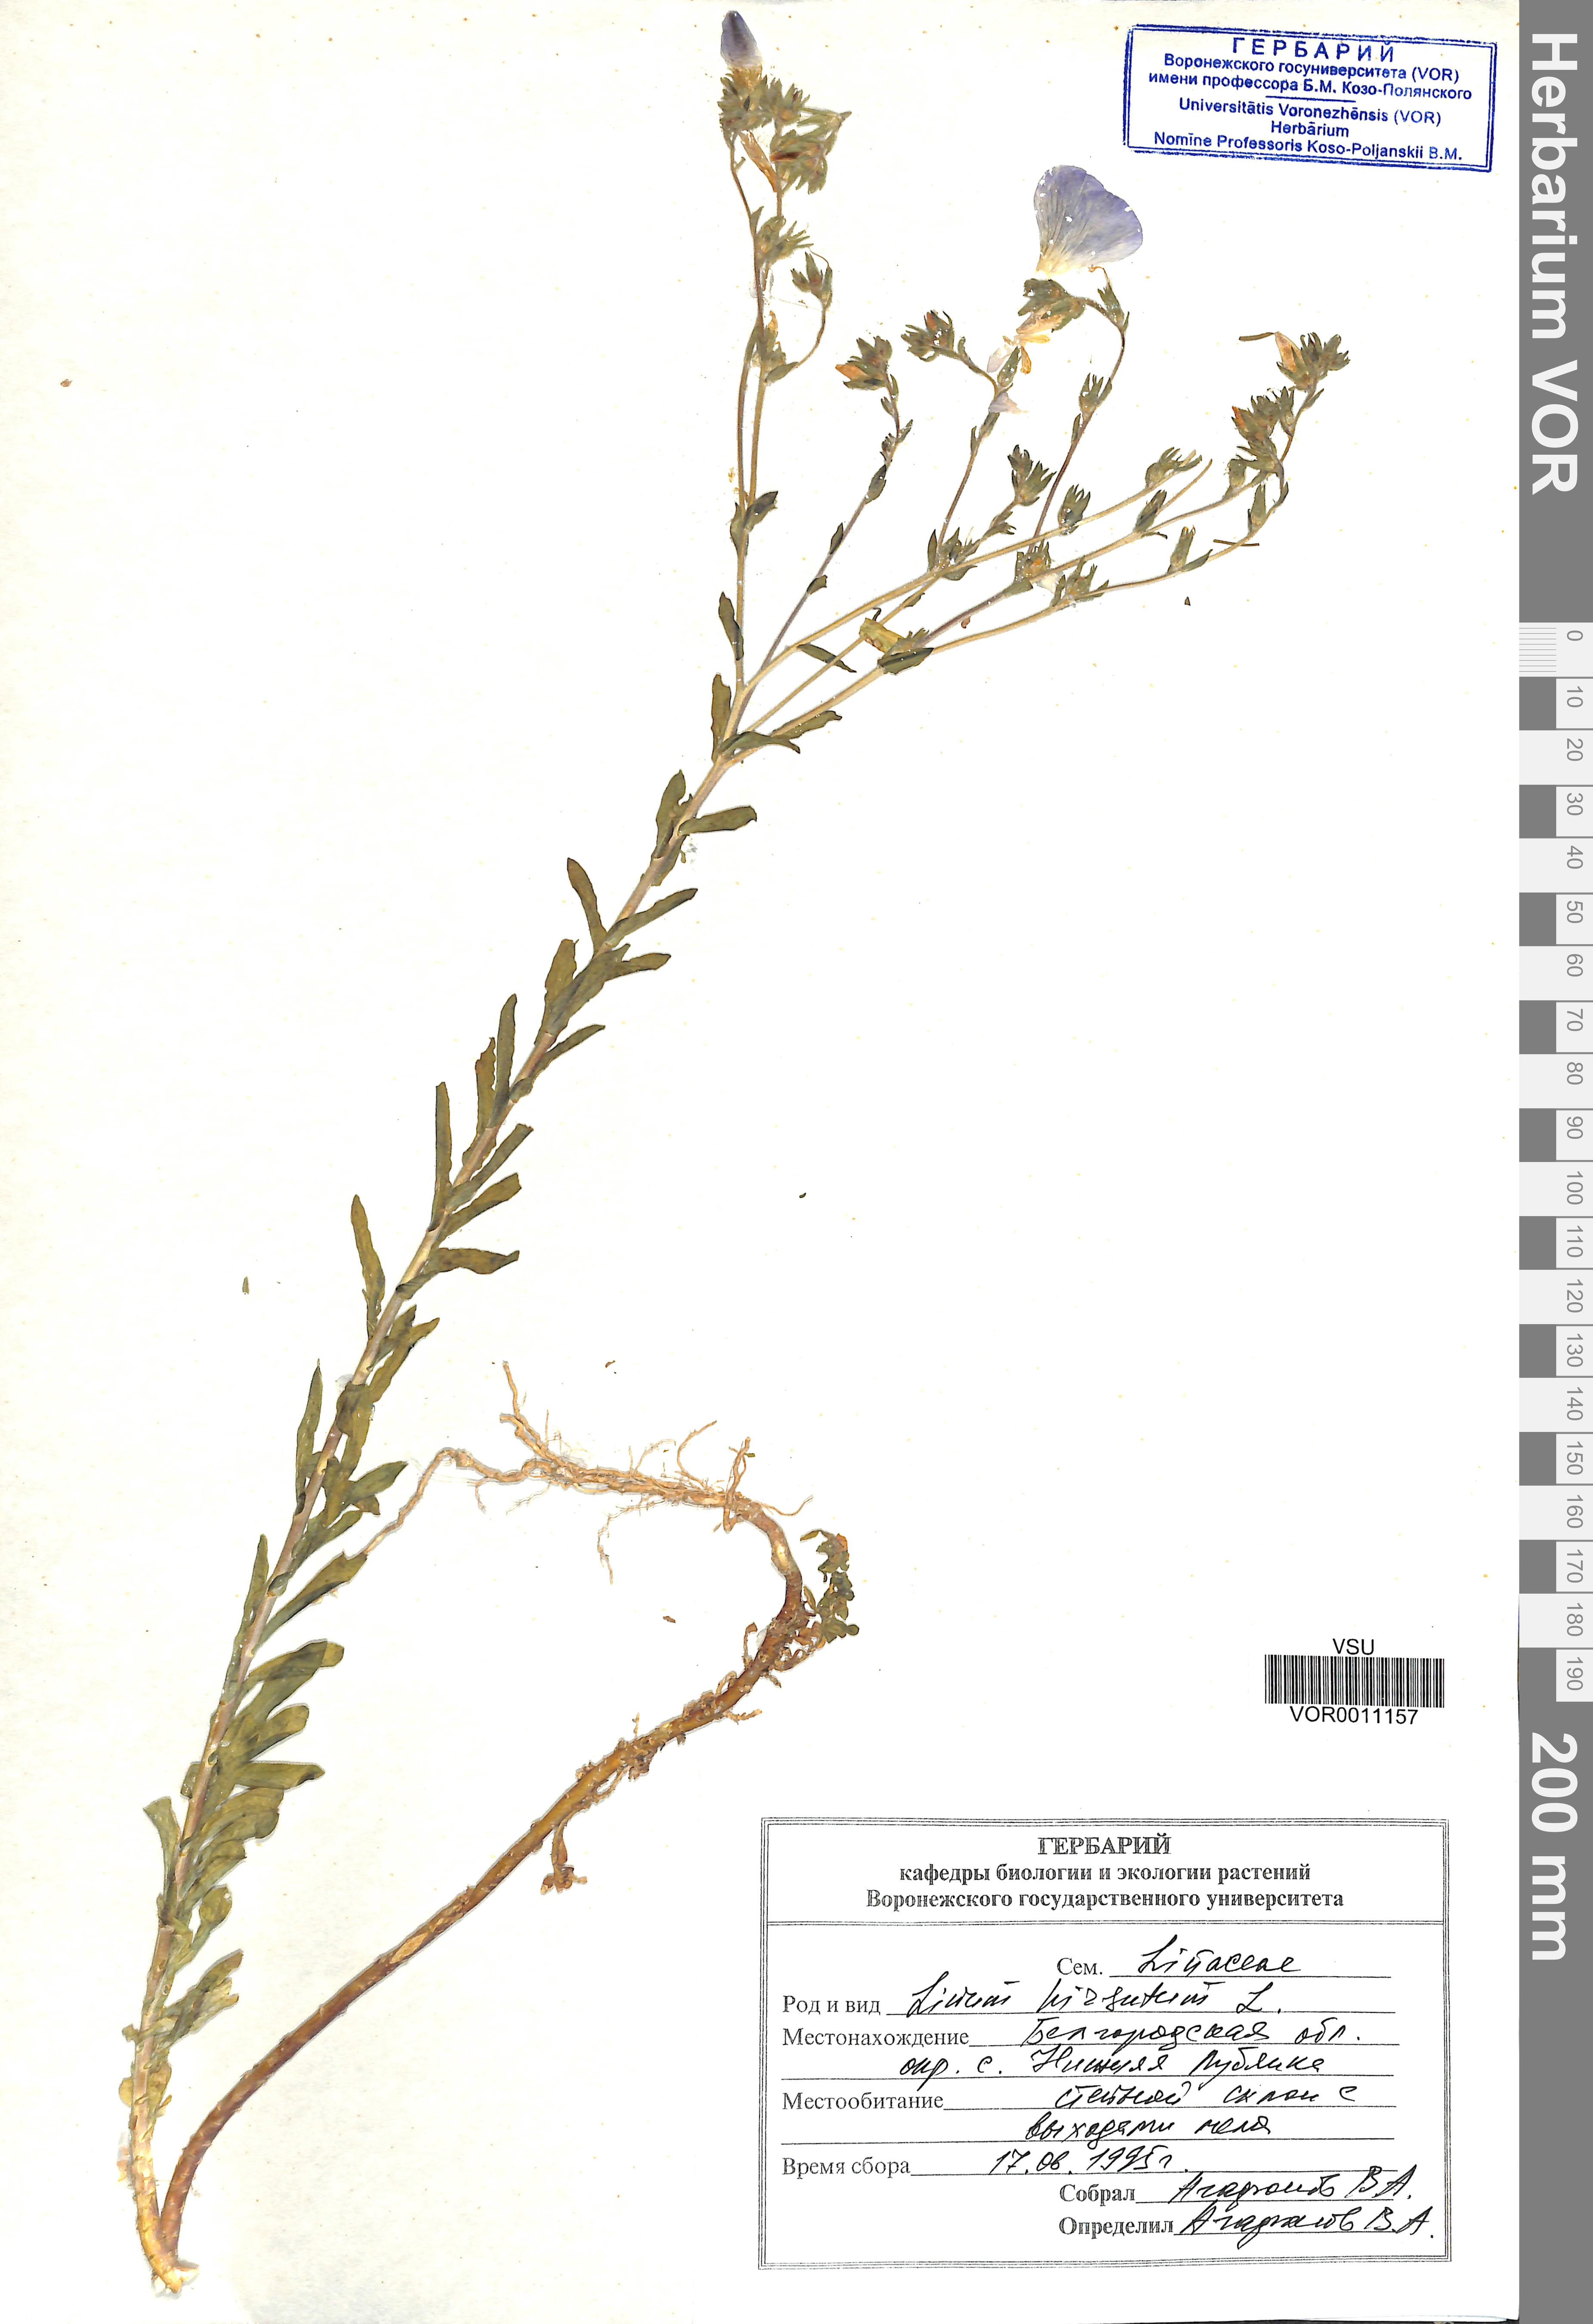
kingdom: Plantae
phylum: Tracheophyta
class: Magnoliopsida
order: Malpighiales
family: Linaceae
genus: Linum
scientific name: Linum hirsutum
